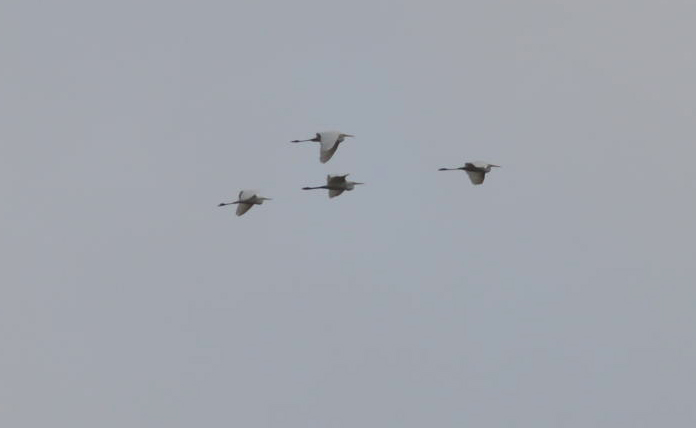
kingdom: Animalia
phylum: Chordata
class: Aves
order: Pelecaniformes
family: Ardeidae
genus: Ardea
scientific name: Ardea cinerea
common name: Grey heron
